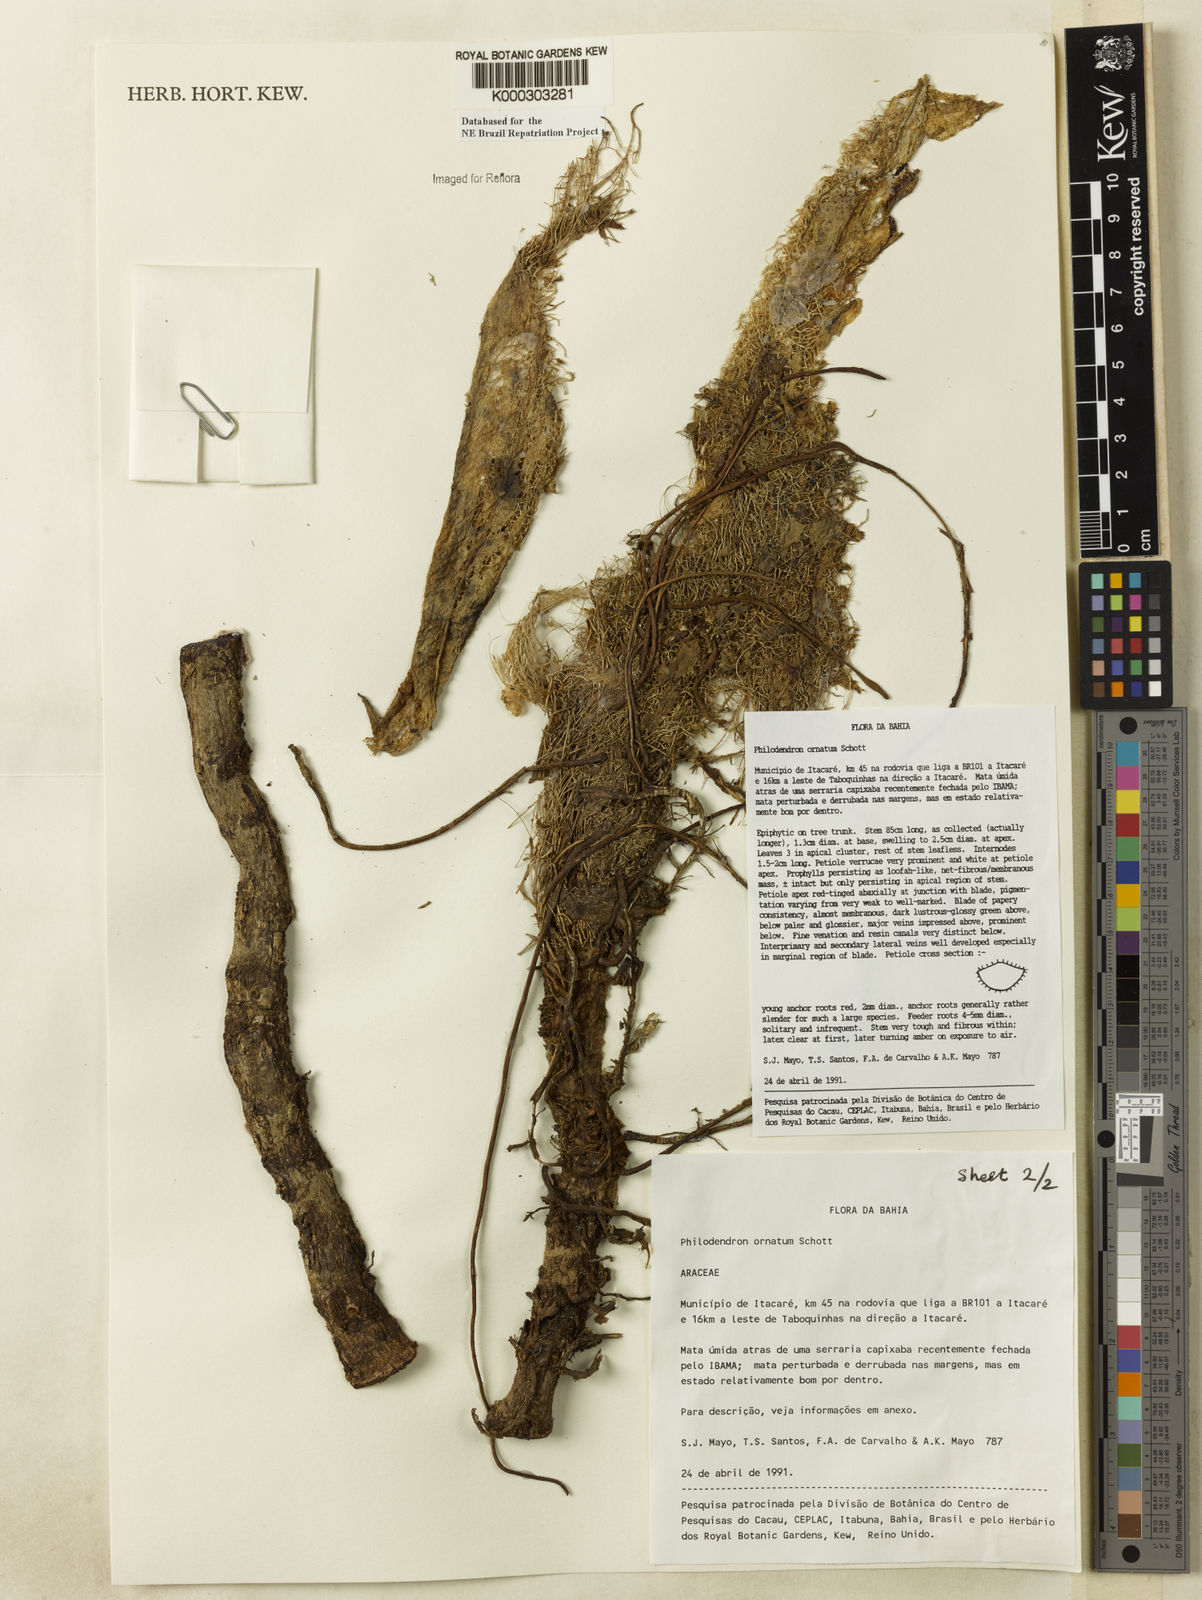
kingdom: Plantae
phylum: Tracheophyta
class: Liliopsida
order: Alismatales
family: Araceae
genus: Philodendron
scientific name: Philodendron ornatum
